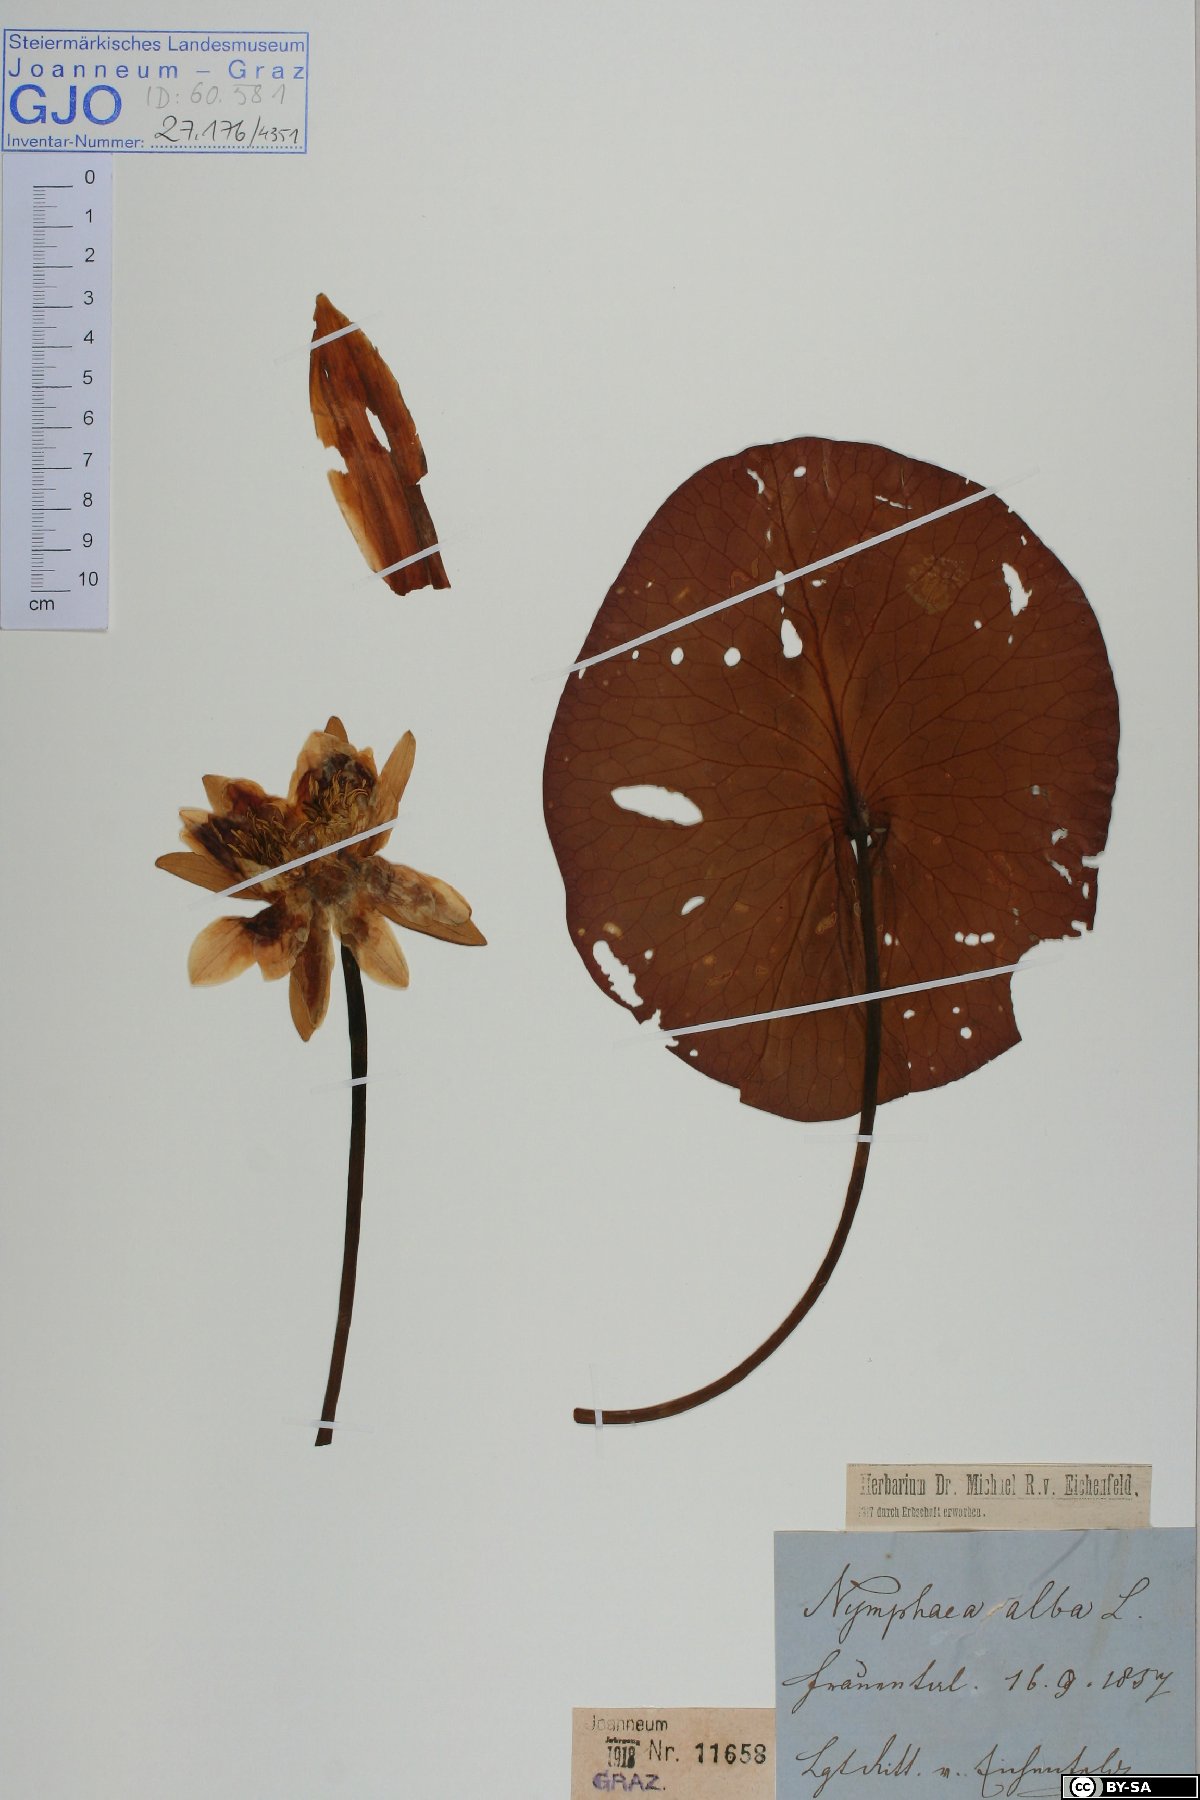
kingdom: Plantae
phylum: Tracheophyta
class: Magnoliopsida
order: Nymphaeales
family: Nymphaeaceae
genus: Nymphaea
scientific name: Nymphaea alba
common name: White water-lily
